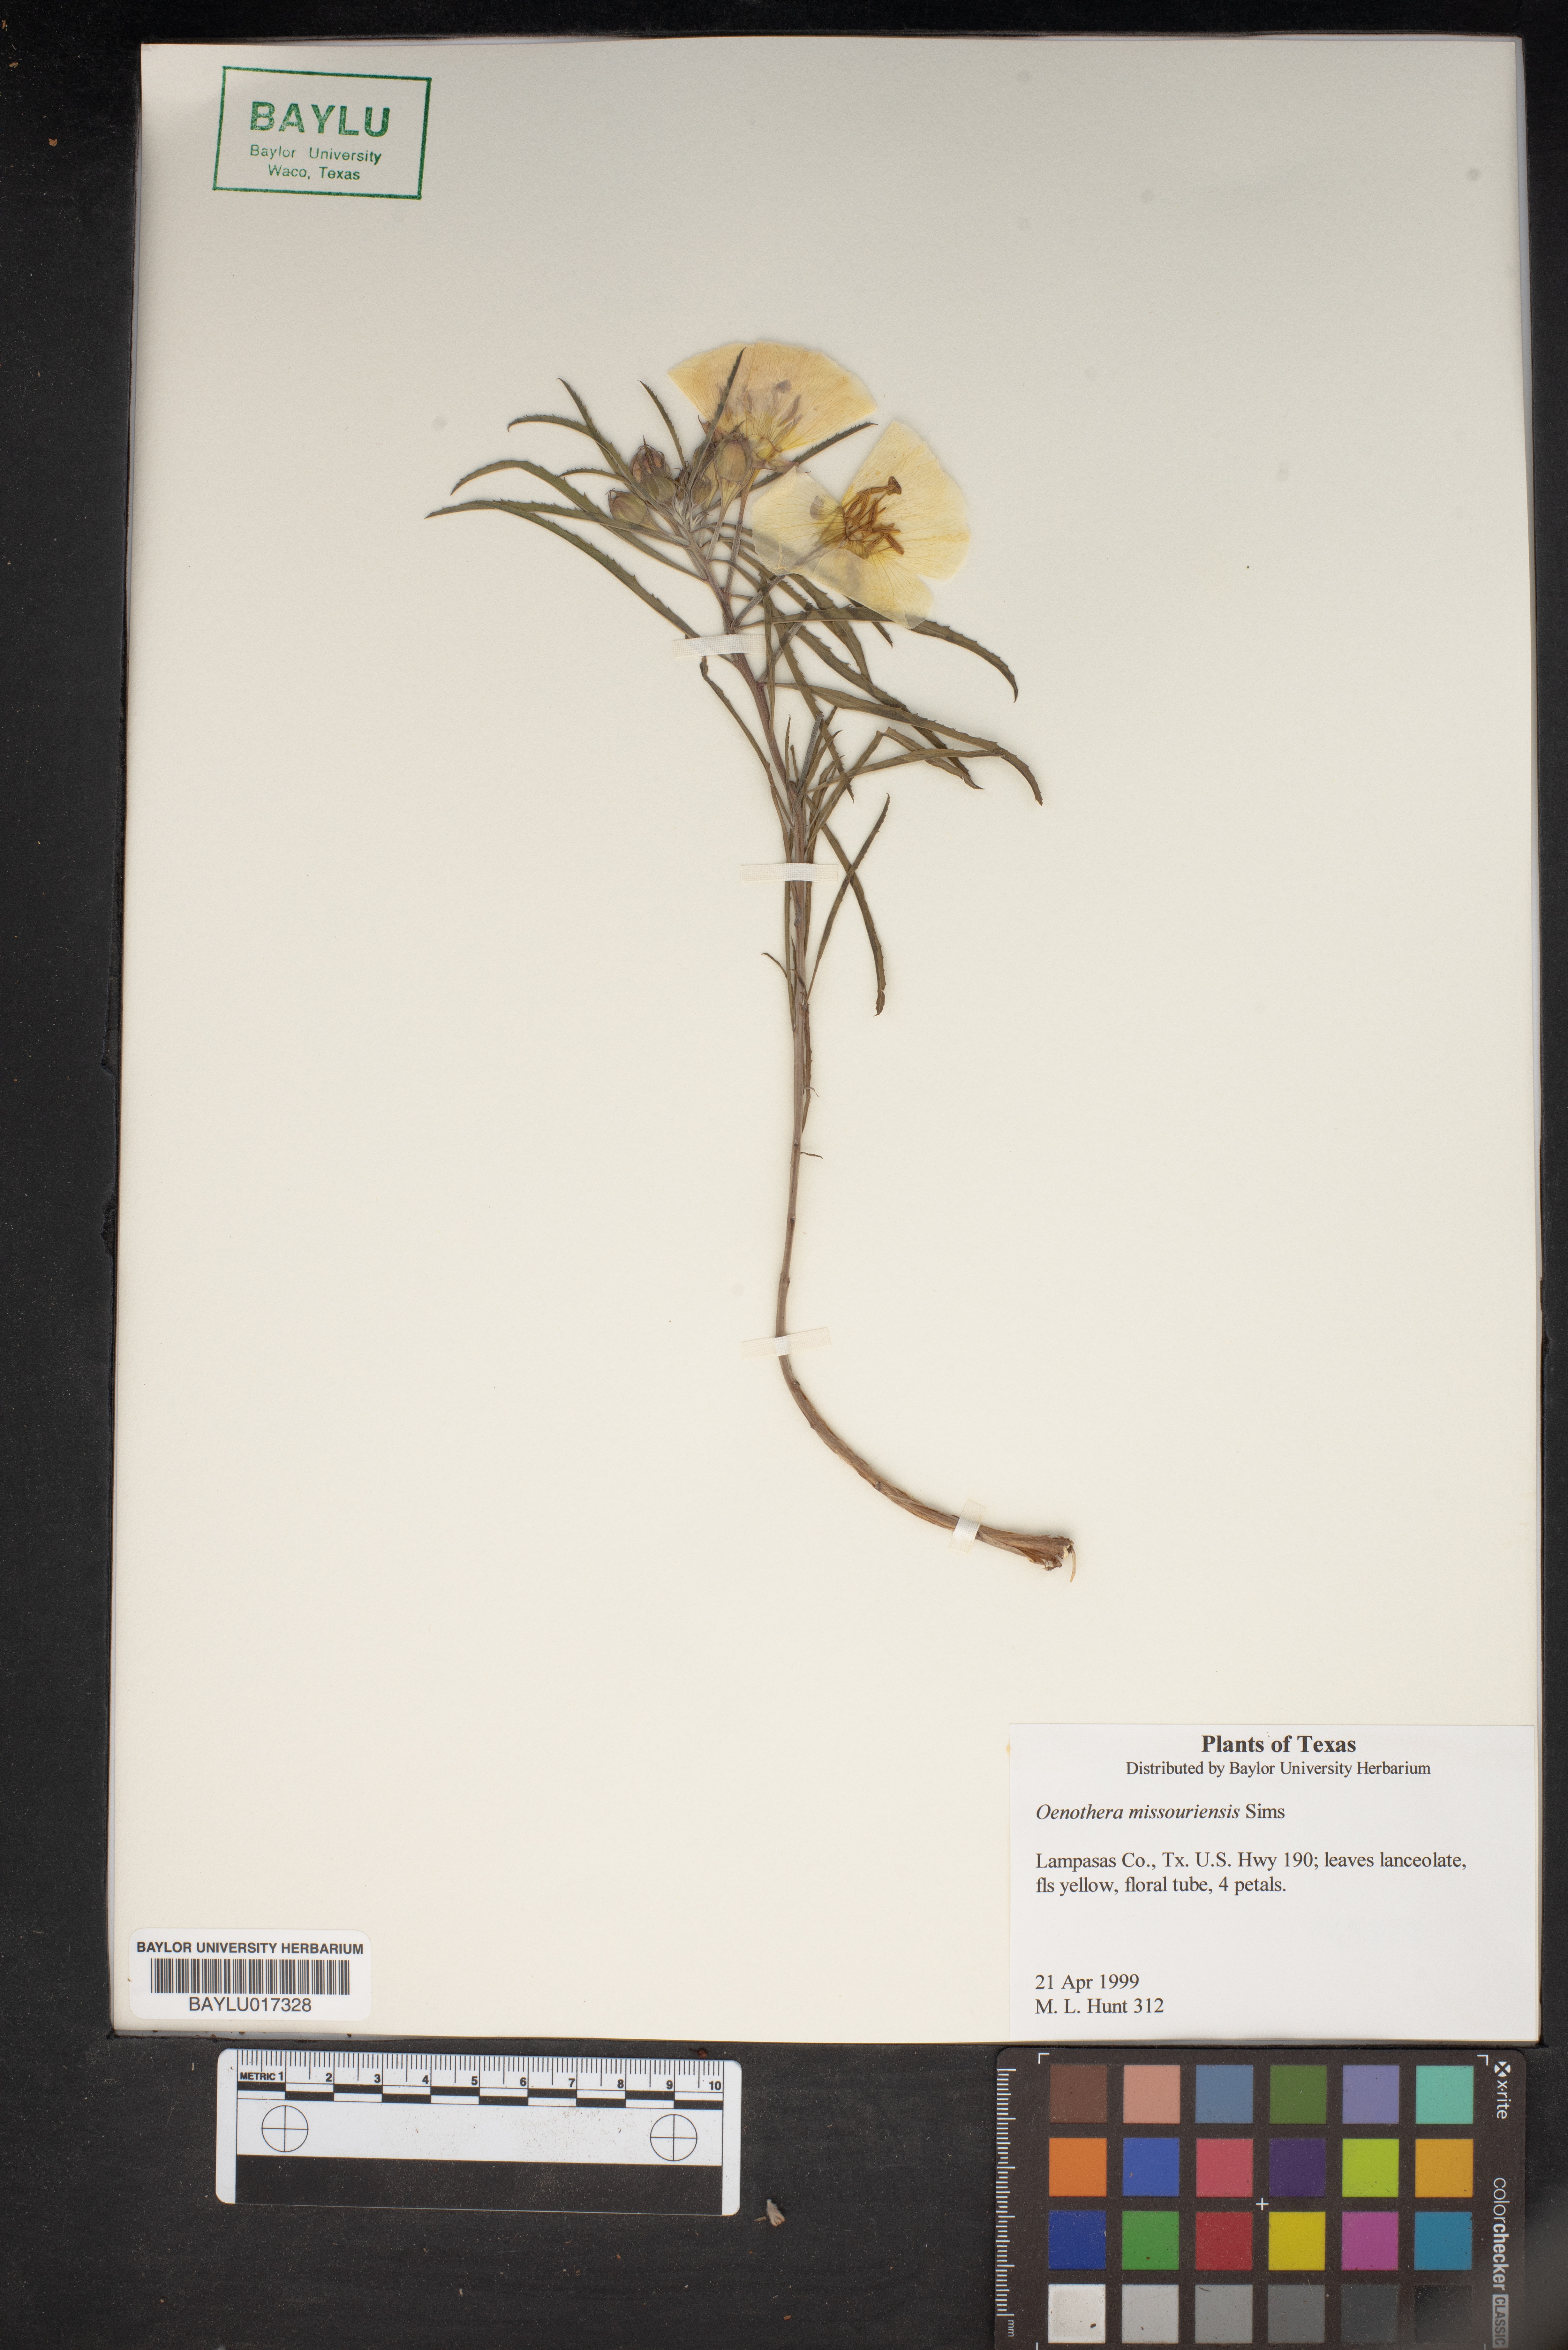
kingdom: Plantae
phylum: Tracheophyta
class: Magnoliopsida
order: Myrtales
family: Onagraceae
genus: Oenothera
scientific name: Oenothera macrocarpa
